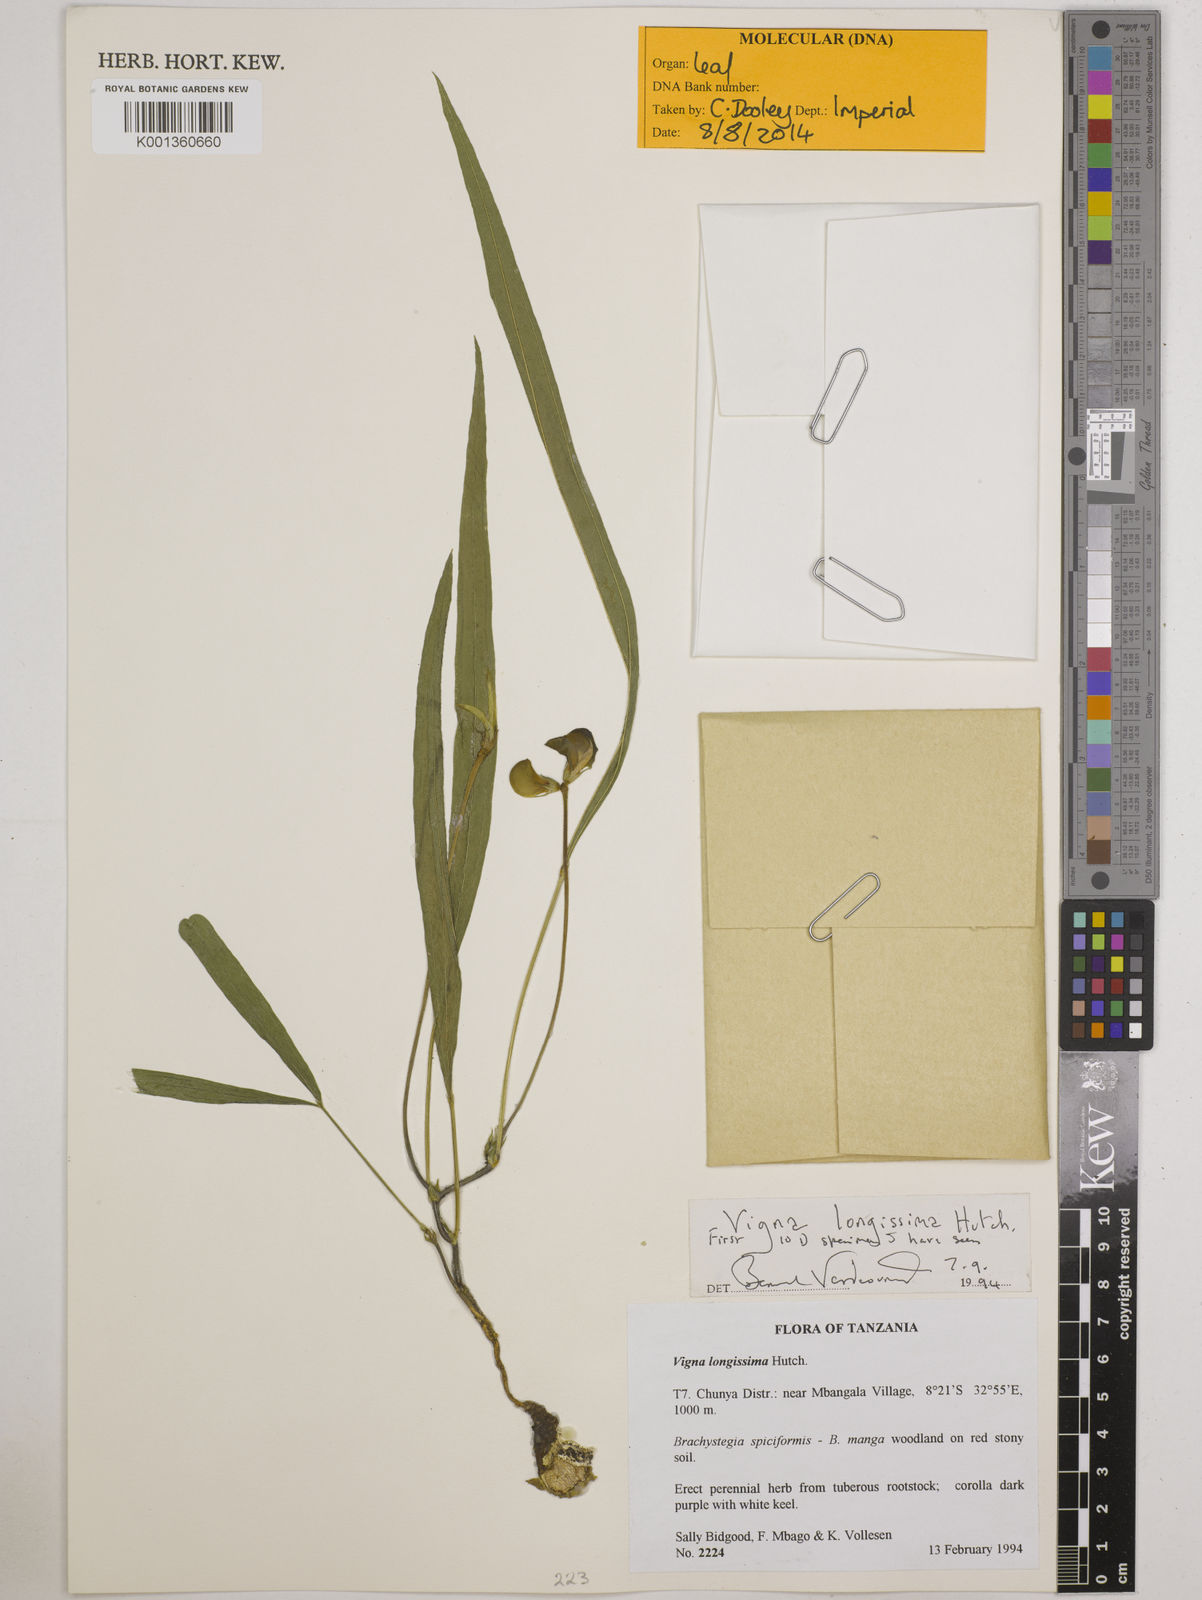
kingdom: Plantae
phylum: Tracheophyta
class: Magnoliopsida
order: Fabales
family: Fabaceae
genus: Vigna
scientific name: Vigna longissima
